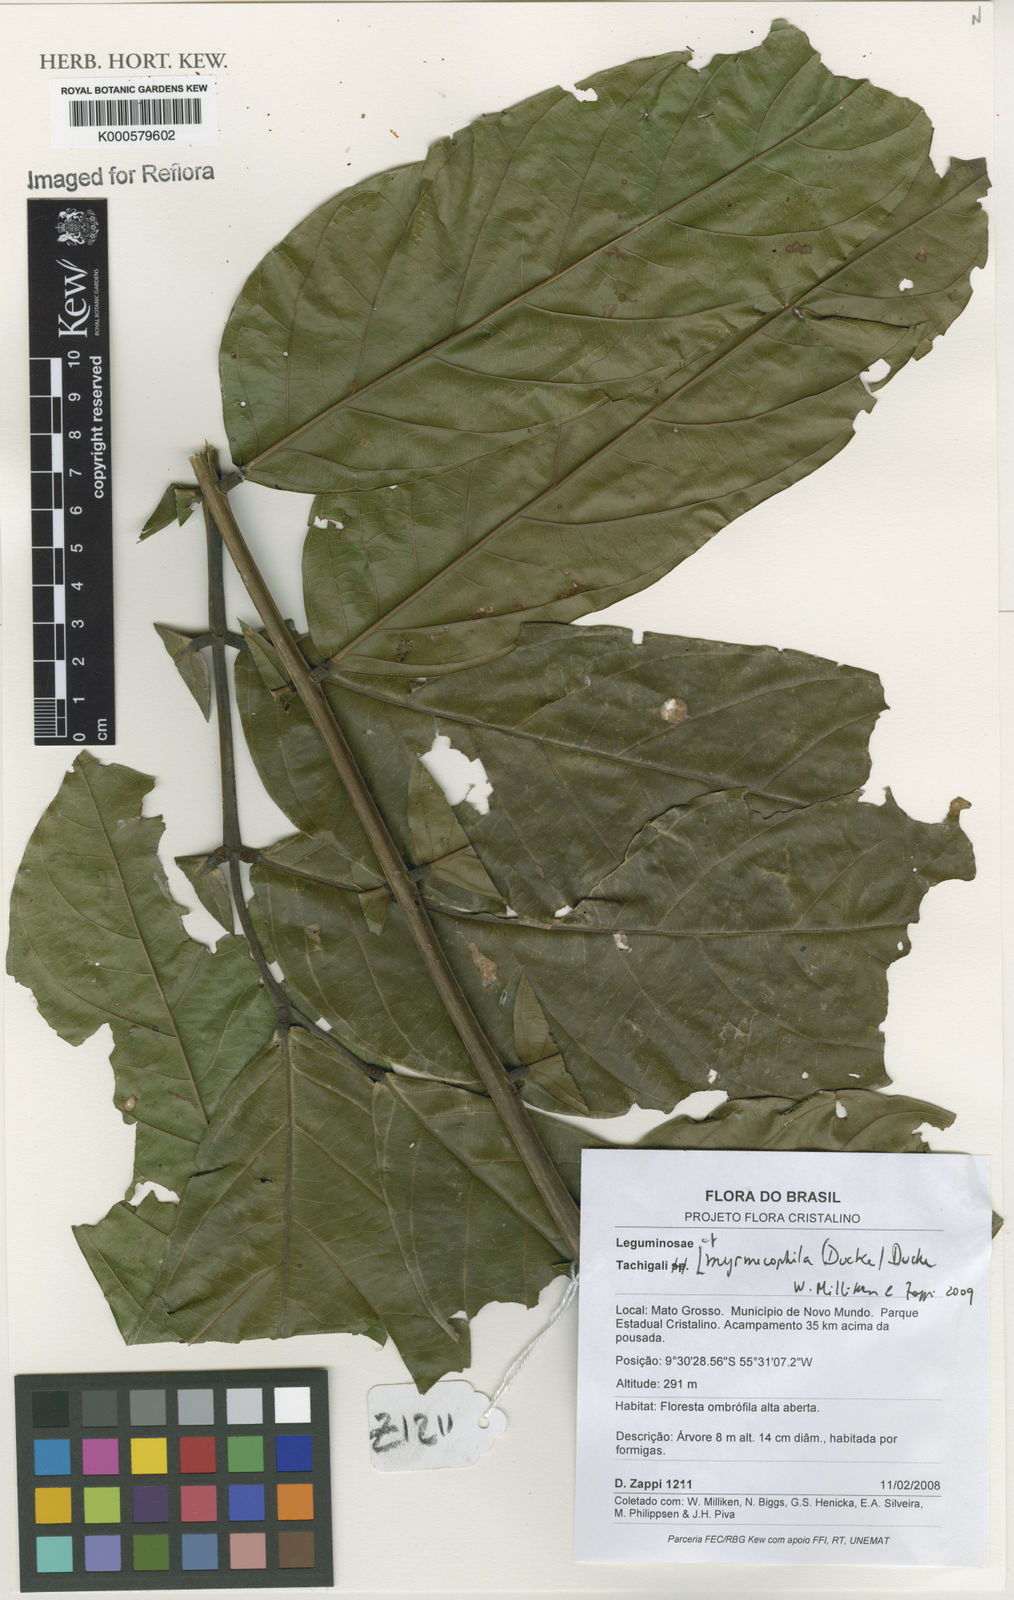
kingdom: Plantae
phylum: Tracheophyta
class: Magnoliopsida
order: Fabales
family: Fabaceae
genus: Tachigali
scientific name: Tachigali glauca
